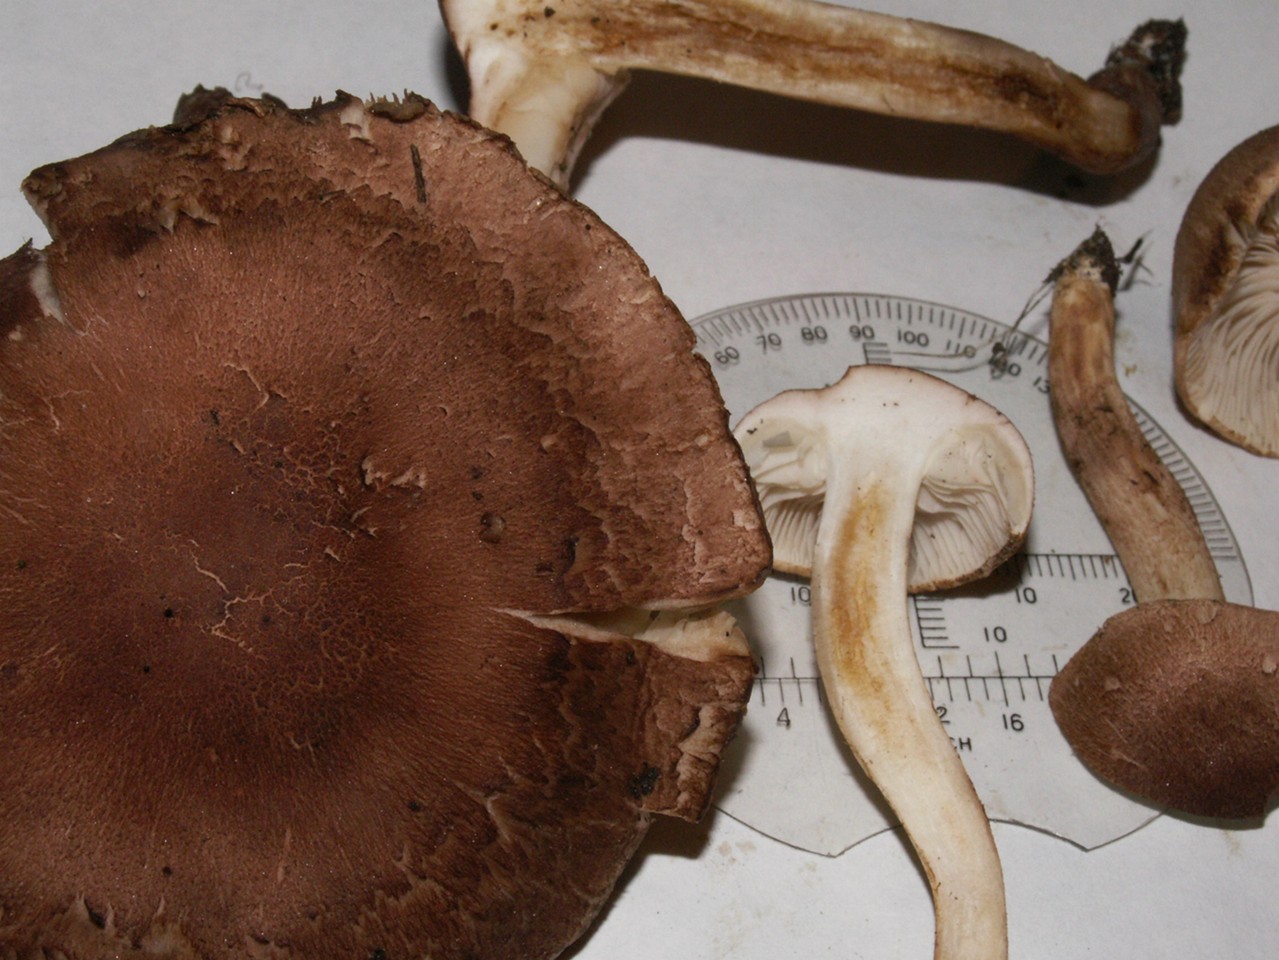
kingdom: Fungi
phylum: Basidiomycota
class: Agaricomycetes
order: Agaricales
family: Tricholomataceae
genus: Tricholoma
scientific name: Tricholoma imbricatum
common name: skællet ridderhat
